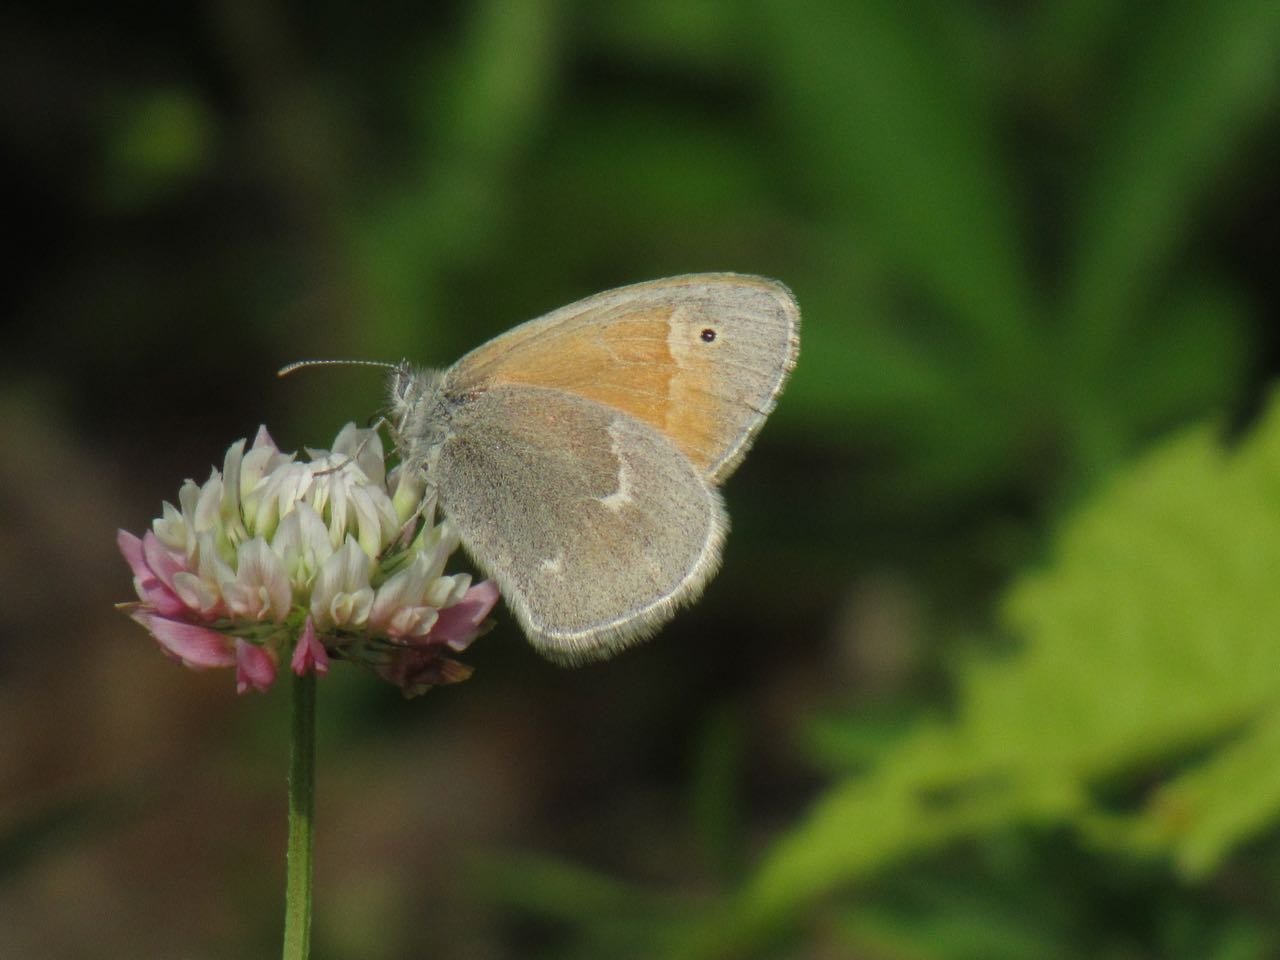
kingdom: Animalia
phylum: Arthropoda
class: Insecta
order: Lepidoptera
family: Nymphalidae
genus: Coenonympha
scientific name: Coenonympha tullia
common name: Large Heath
